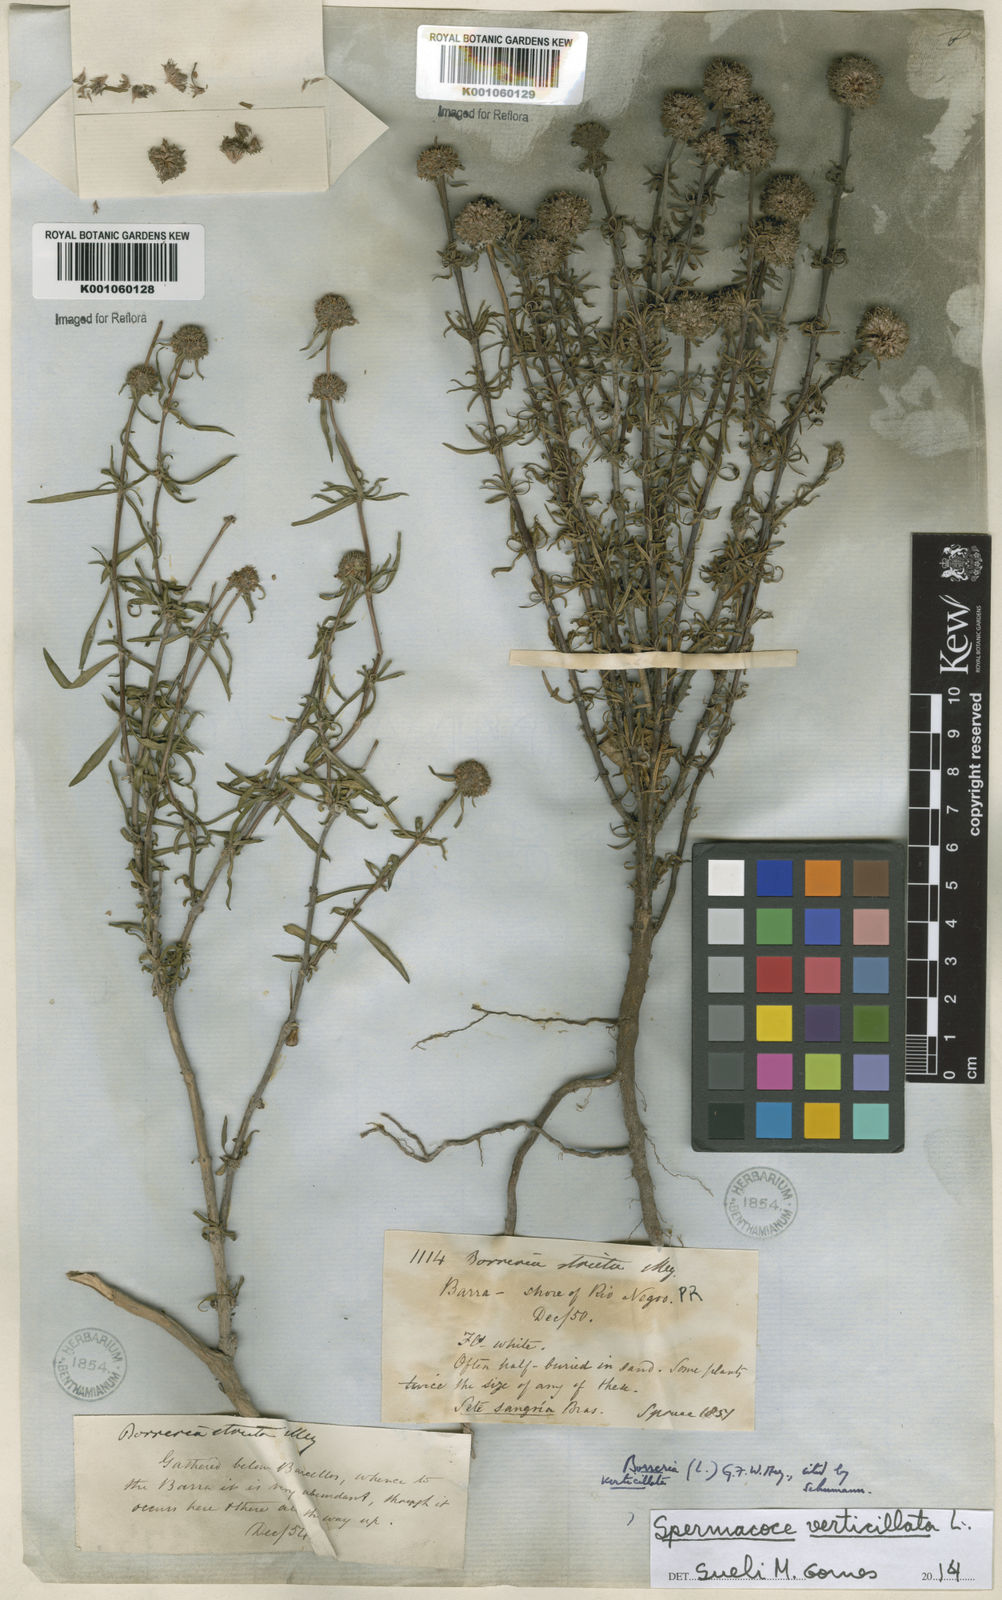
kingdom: Plantae
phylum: Tracheophyta
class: Magnoliopsida
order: Gentianales
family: Rubiaceae
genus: Spermacoce
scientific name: Spermacoce verticillata
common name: Shrubby false buttonweed
